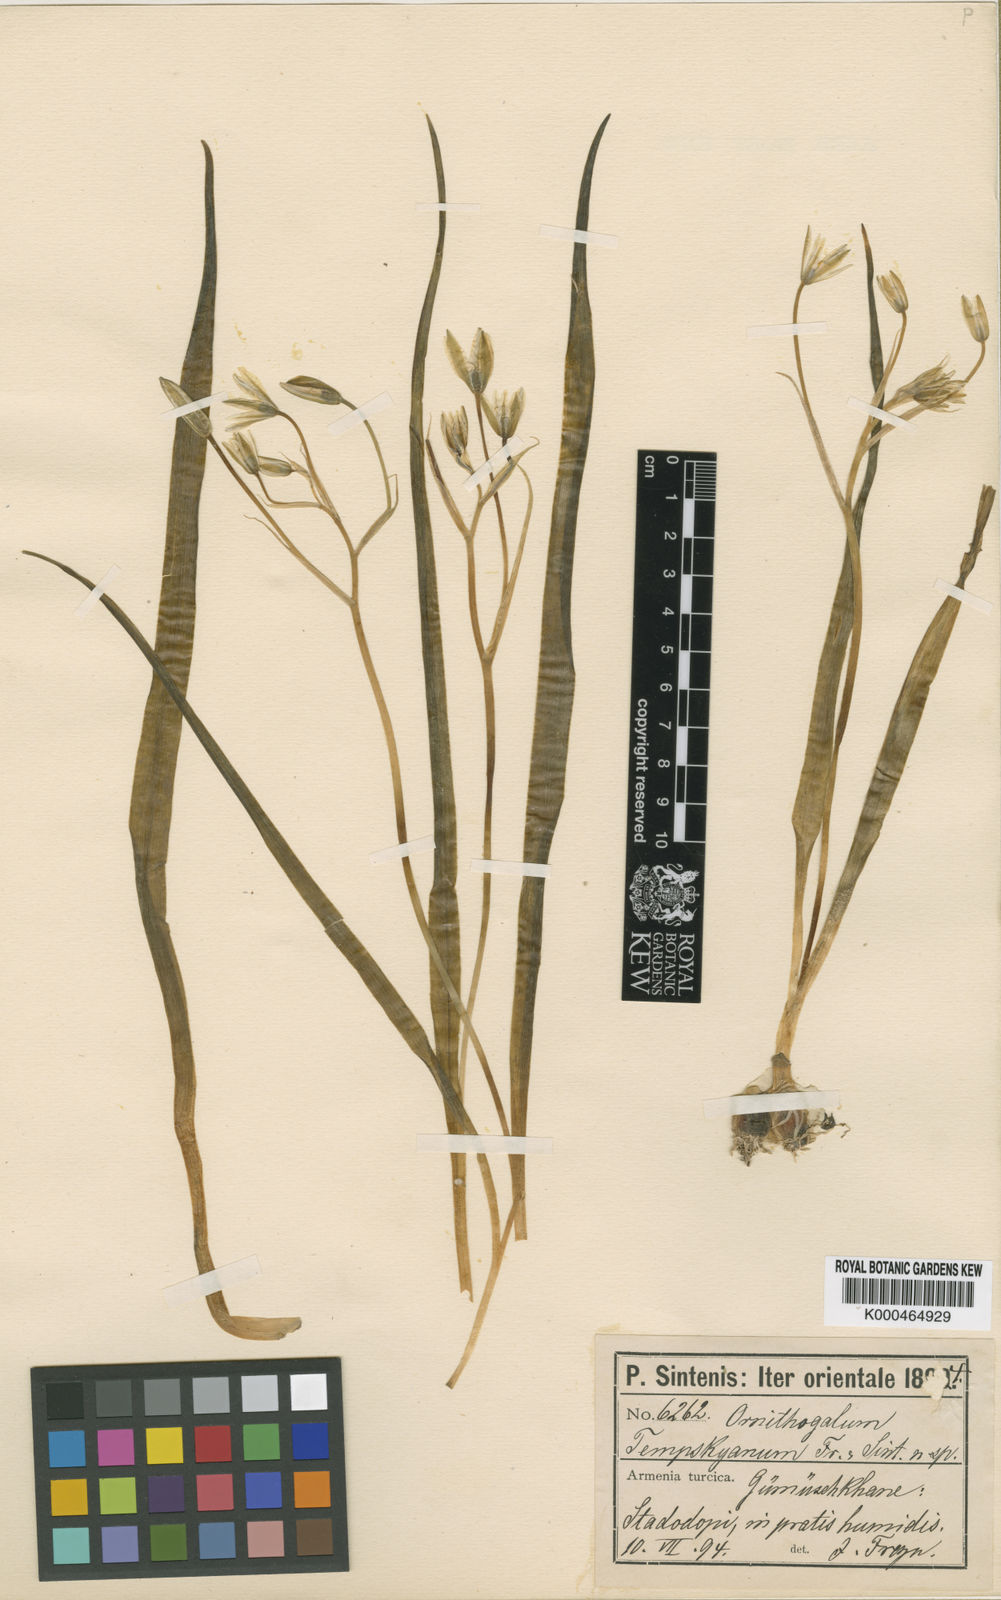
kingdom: Plantae
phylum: Tracheophyta
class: Liliopsida
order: Asparagales
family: Asparagaceae
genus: Ornithogalum
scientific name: Ornithogalum graciliflorum
